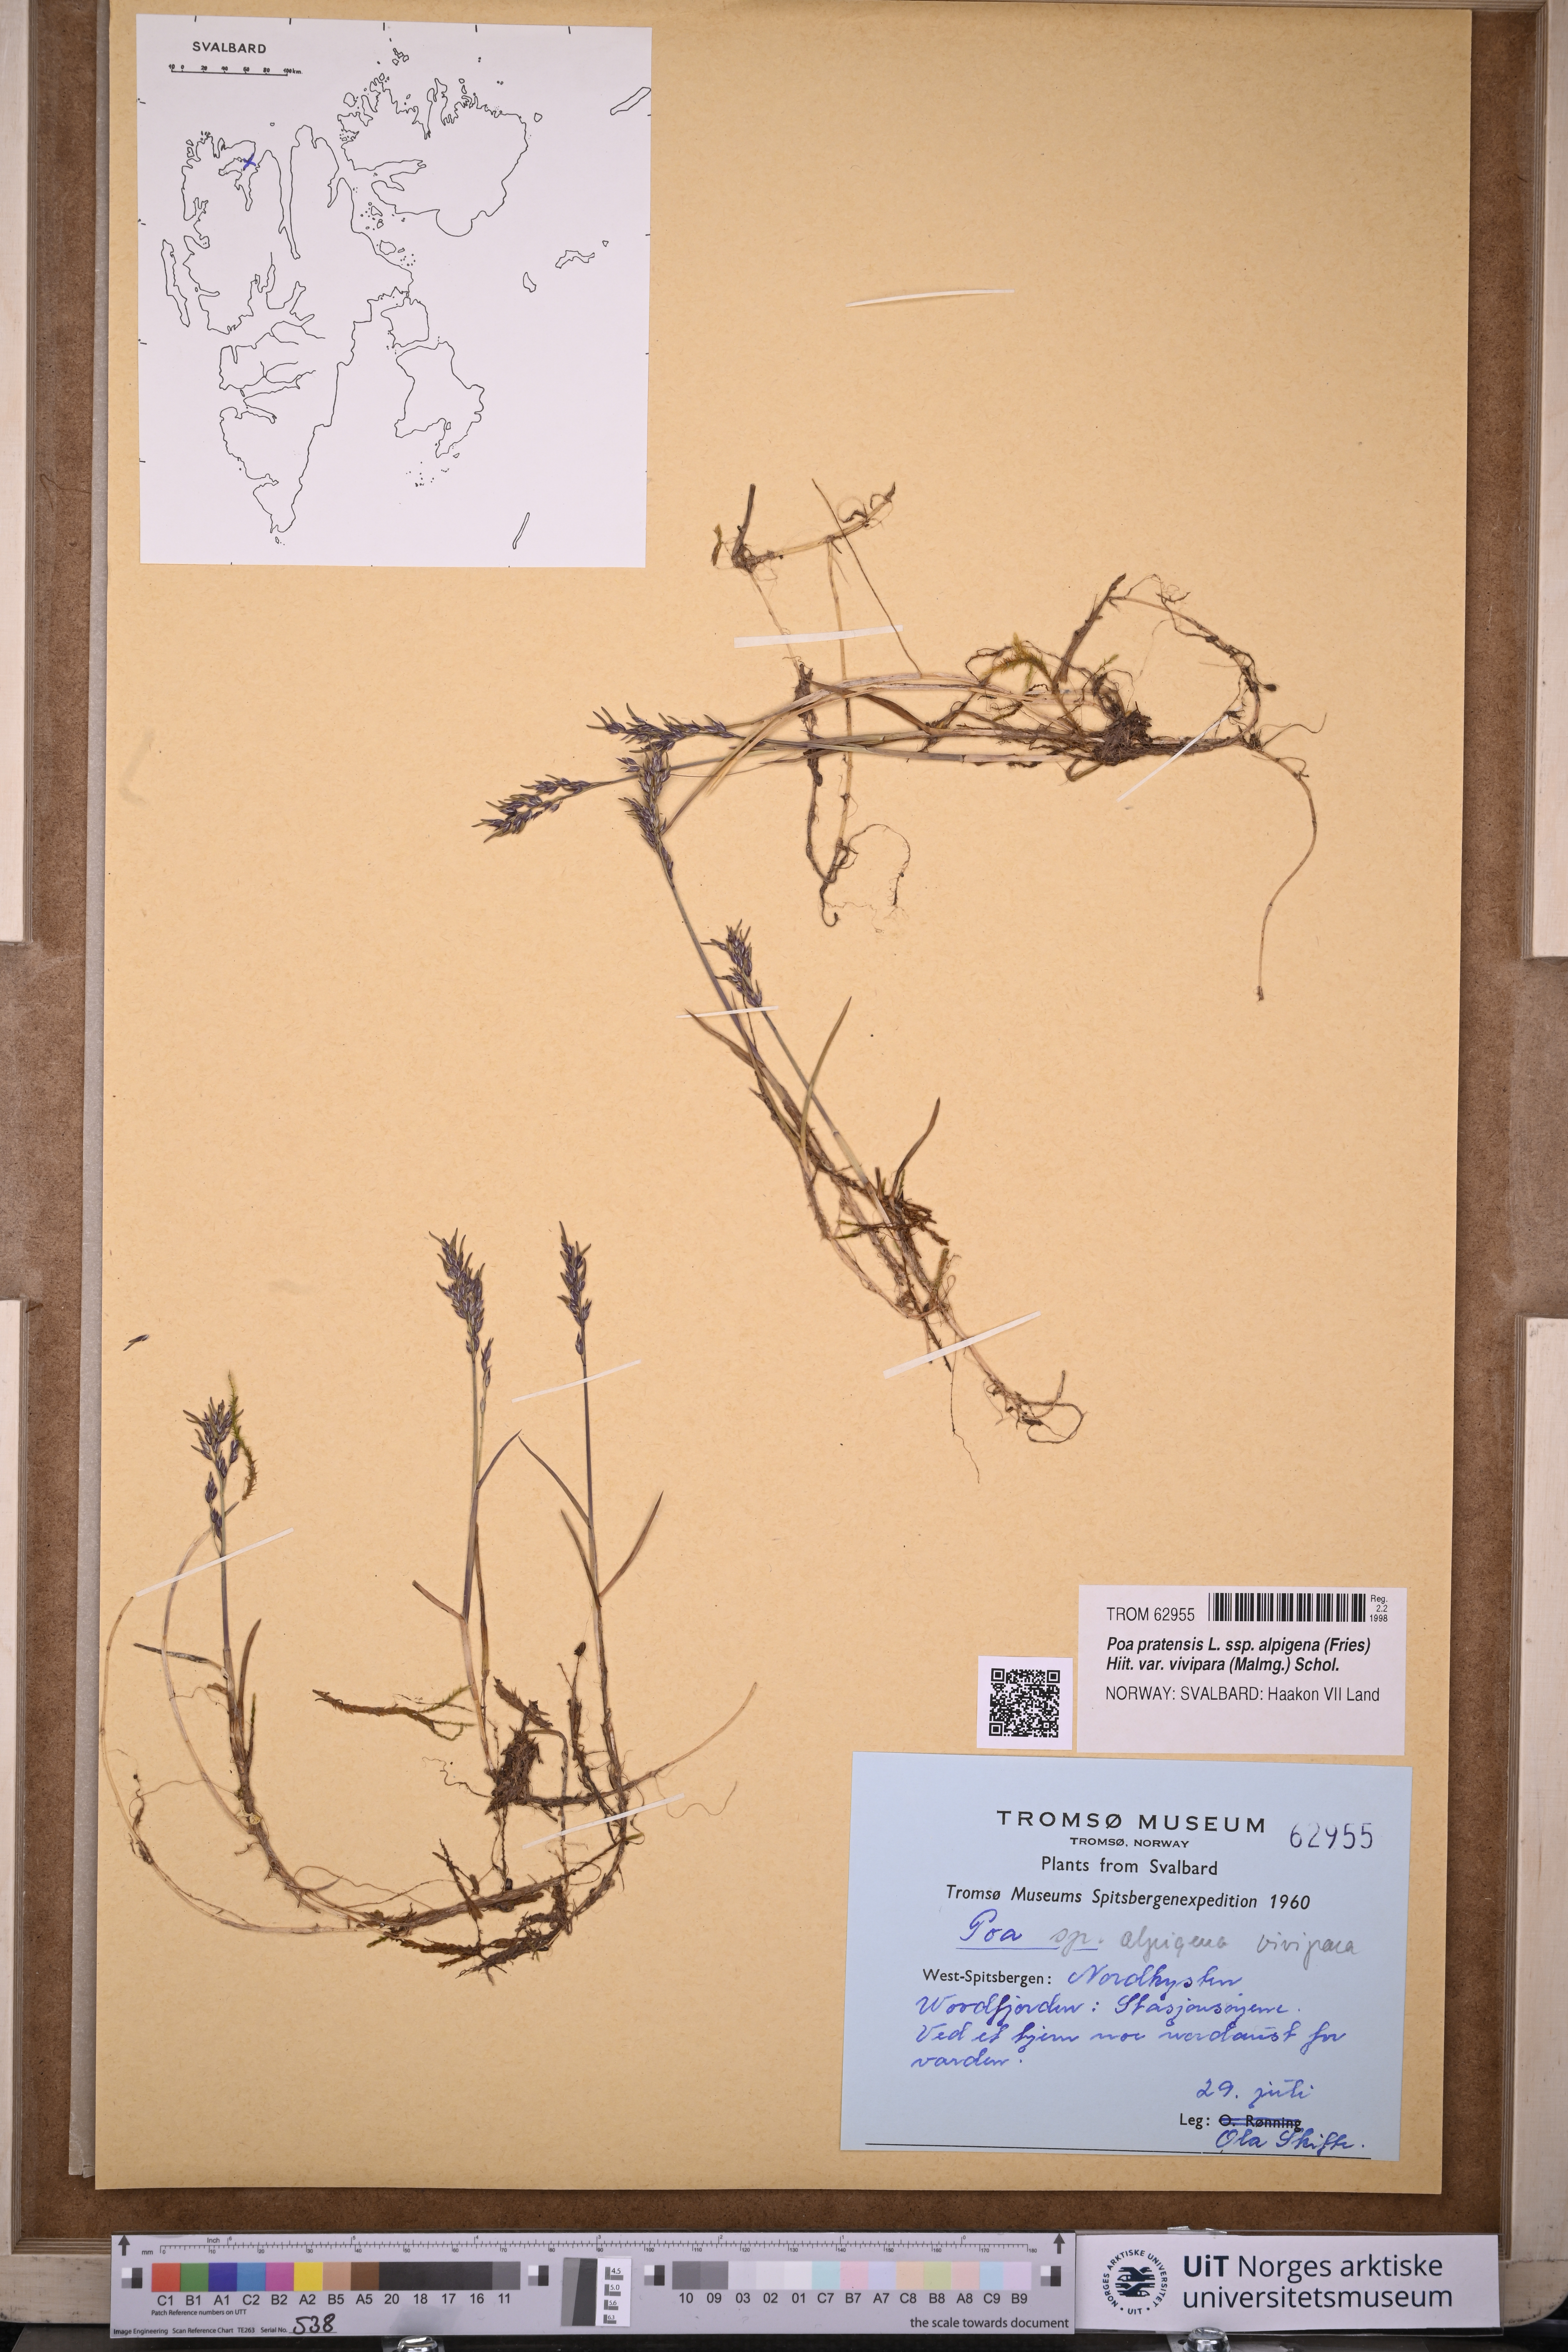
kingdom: Plantae
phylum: Tracheophyta
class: Liliopsida
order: Poales
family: Poaceae
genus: Poa
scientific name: Poa arctica
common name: Arctic bluegrass
